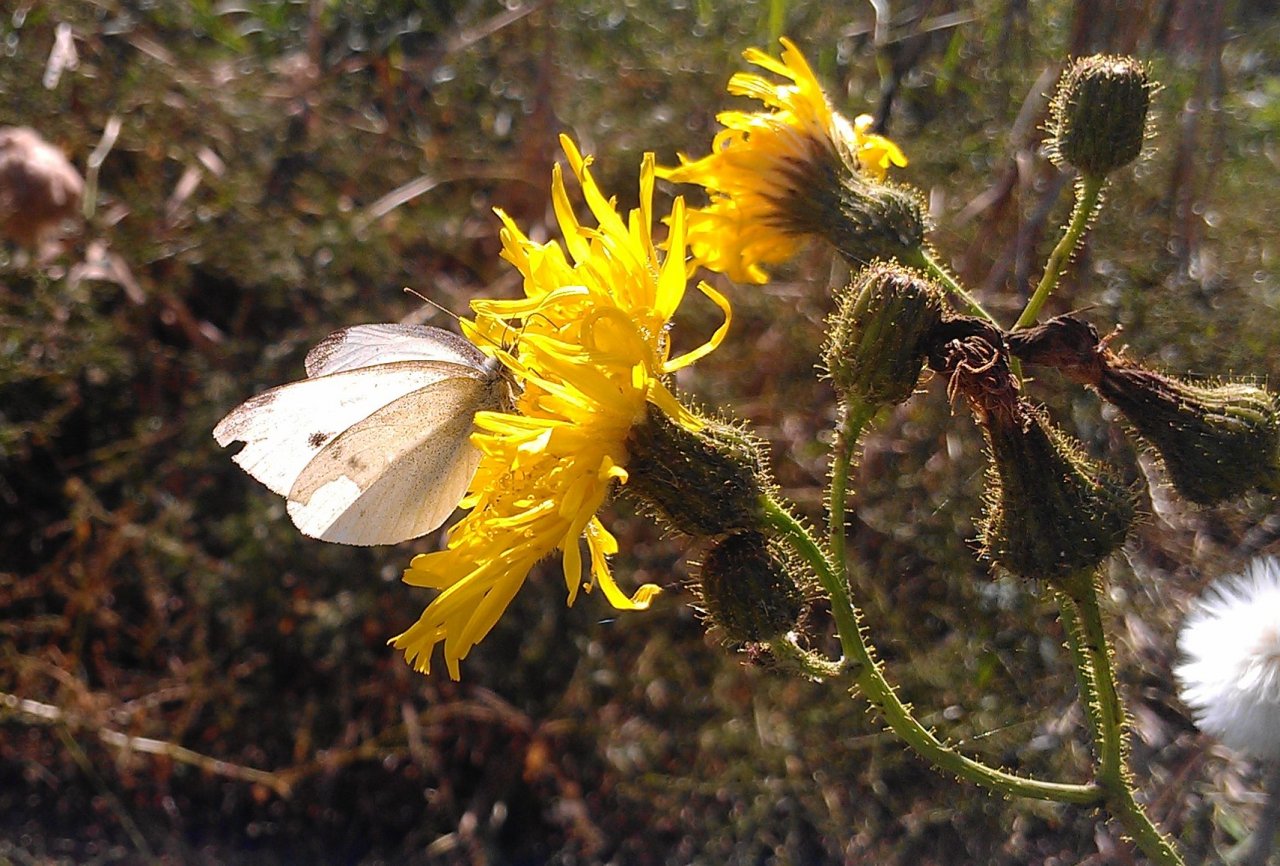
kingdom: Animalia
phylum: Arthropoda
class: Insecta
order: Lepidoptera
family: Pieridae
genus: Pieris
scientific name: Pieris rapae
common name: Cabbage White
